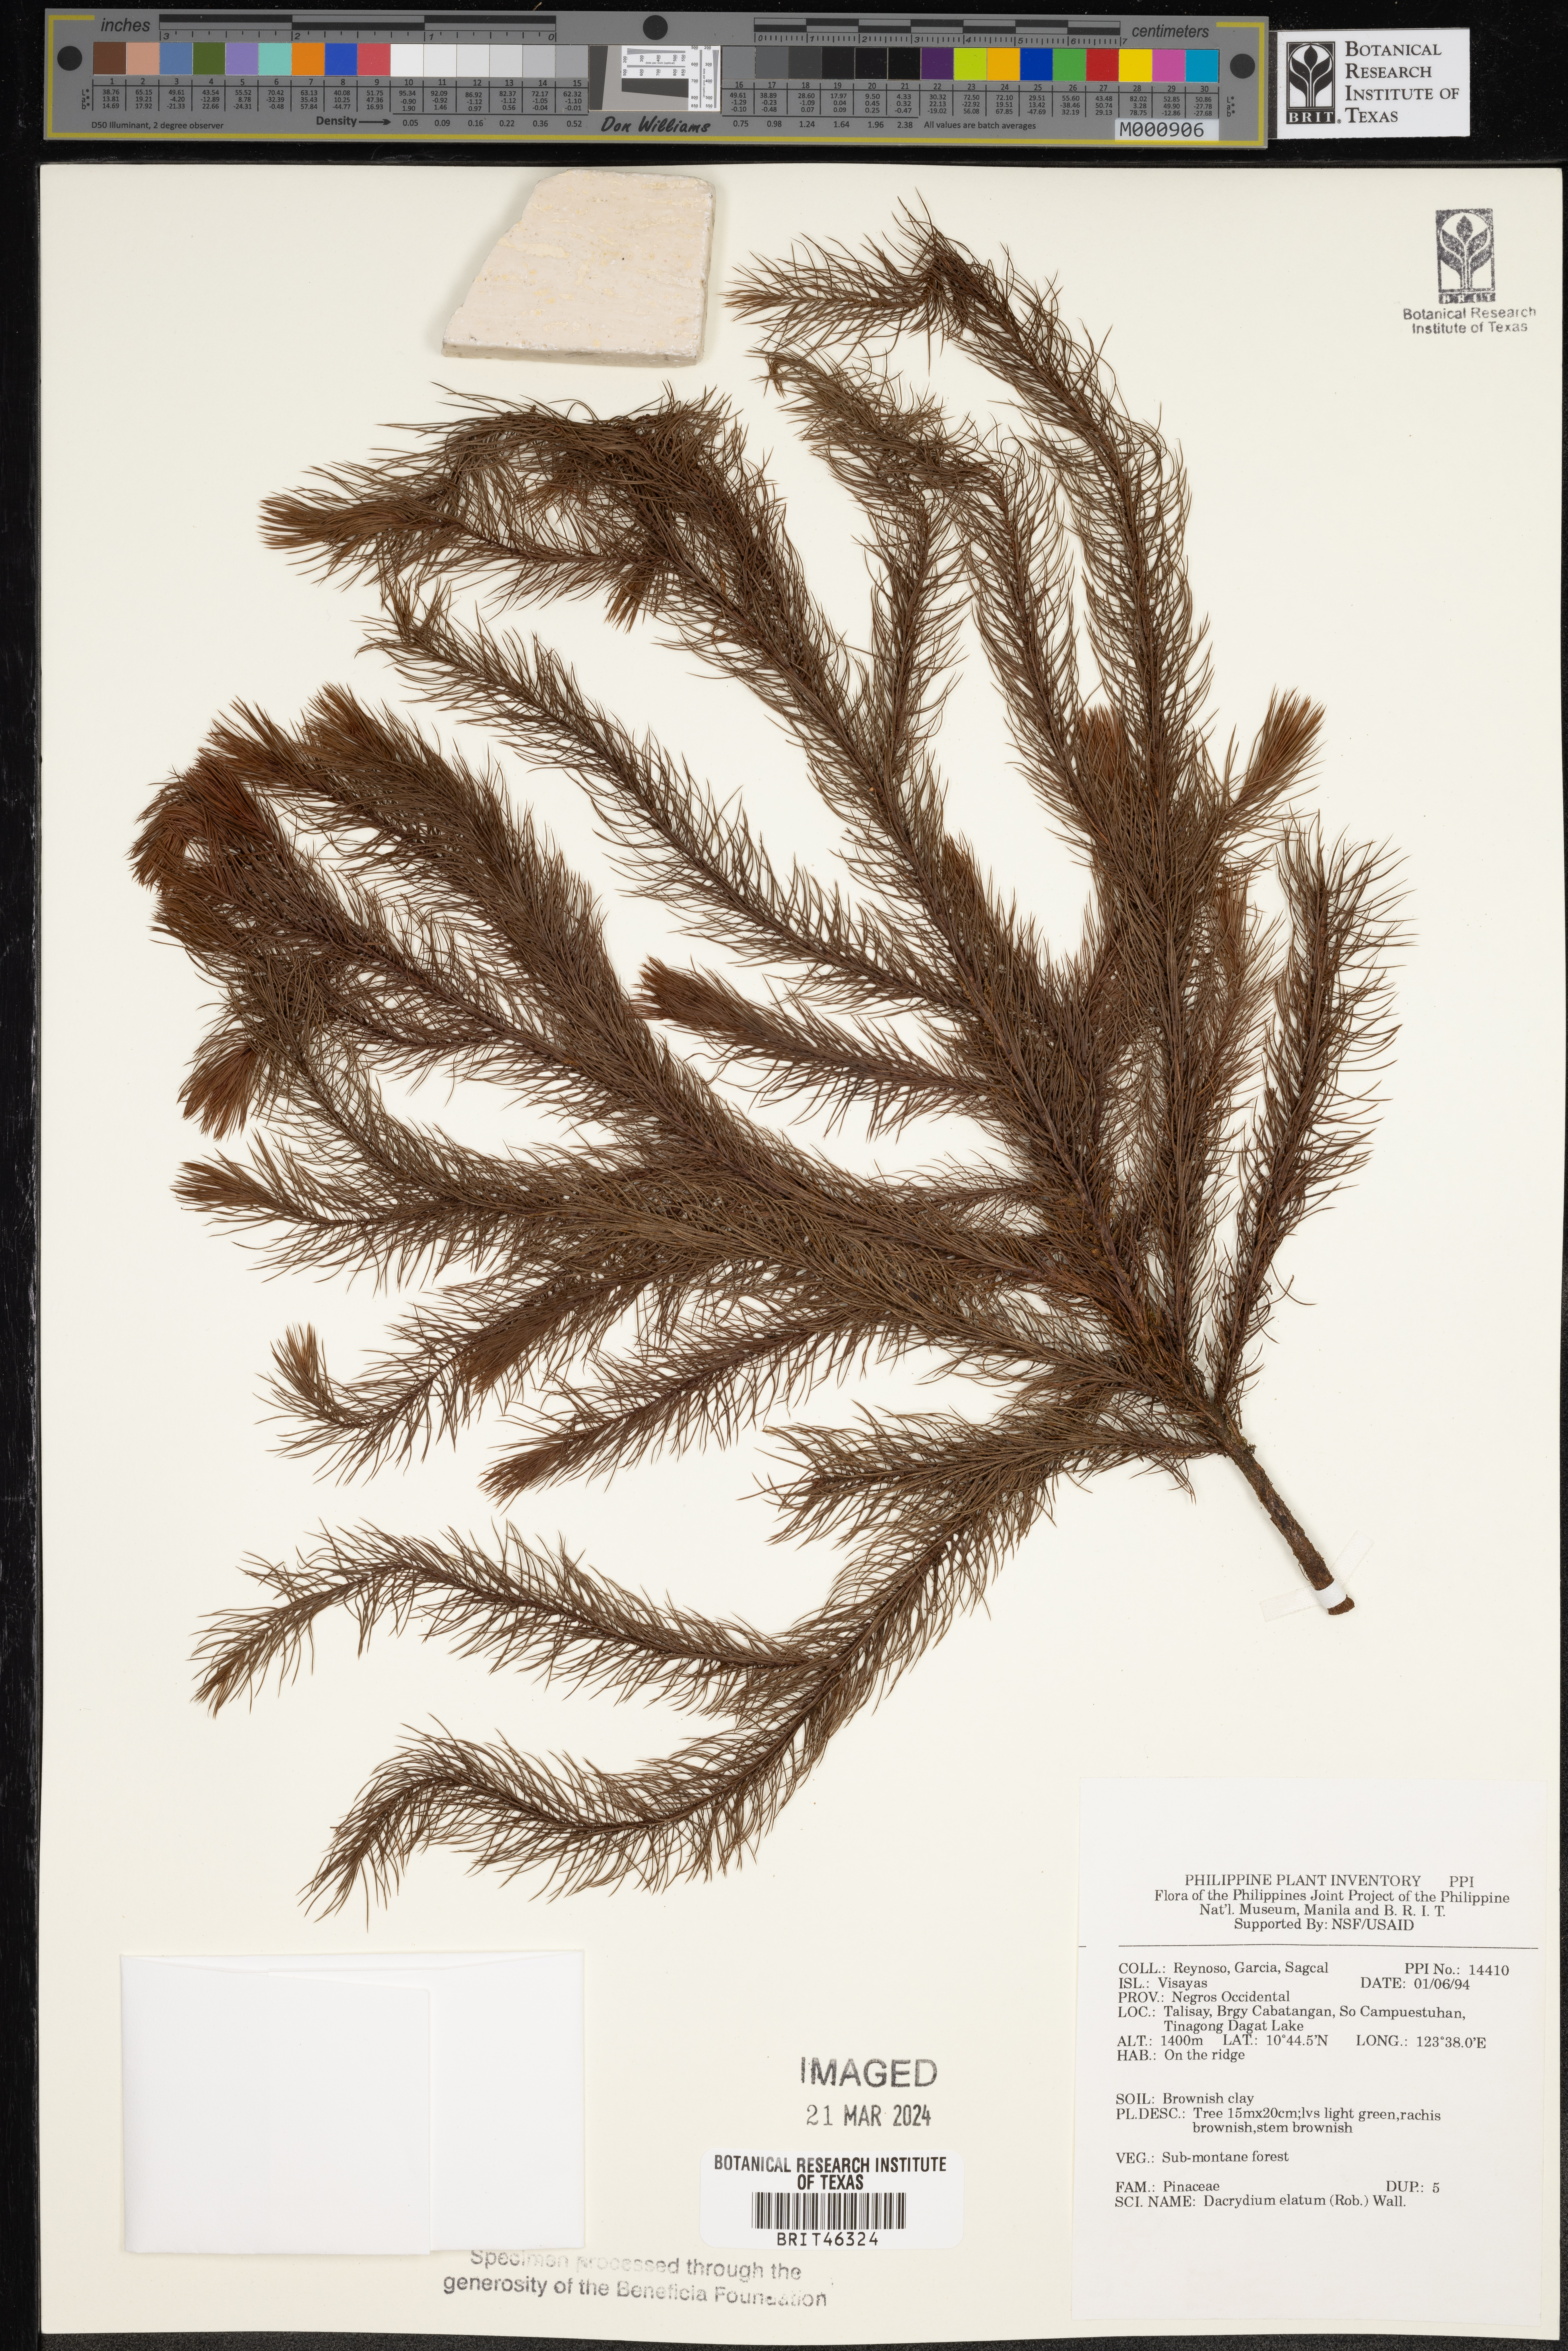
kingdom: Plantae
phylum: Tracheophyta
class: Pinopsida
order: Pinales
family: Podocarpaceae
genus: Dacrydium
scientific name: Dacrydium elatum
